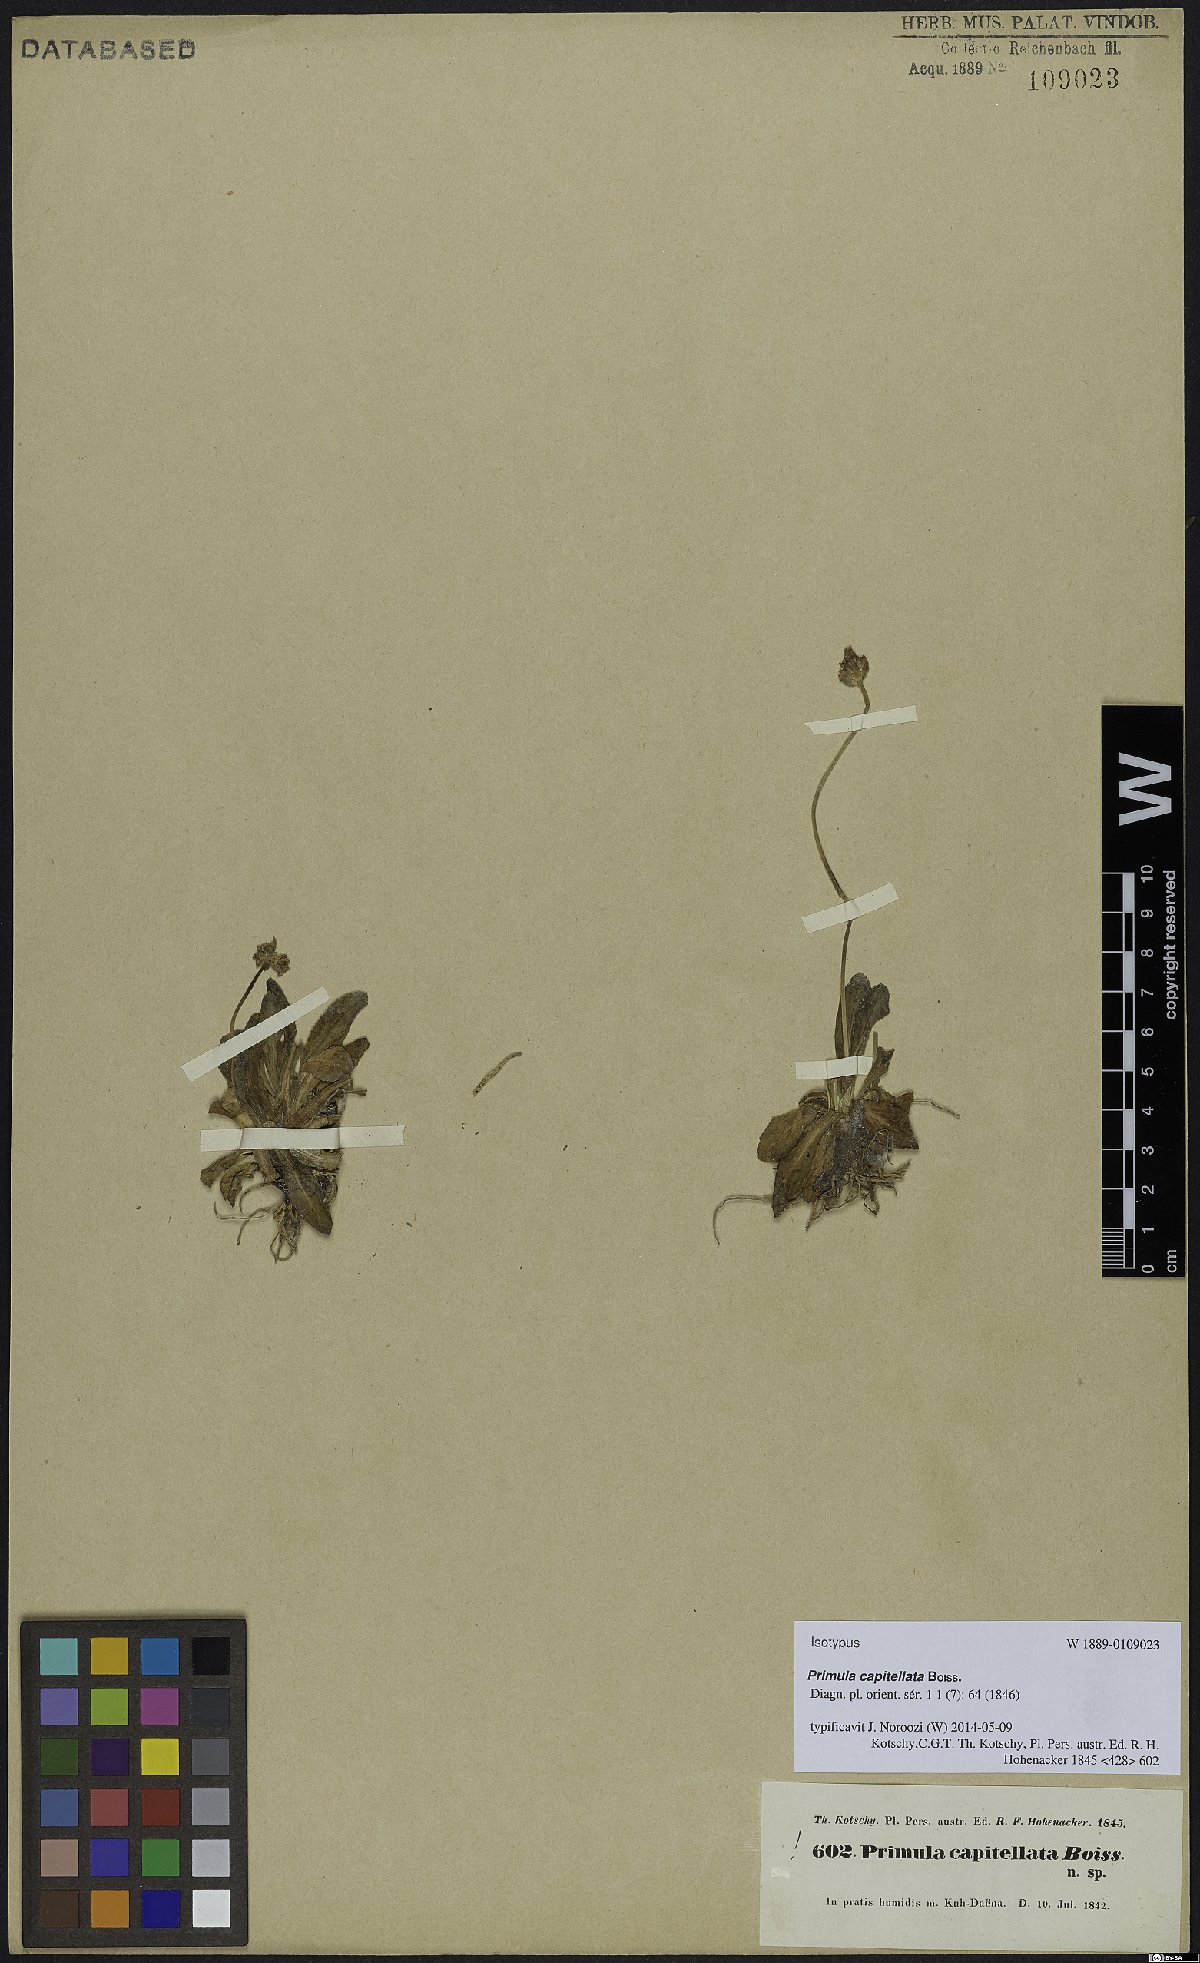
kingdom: Plantae
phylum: Tracheophyta
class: Magnoliopsida
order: Ericales
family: Primulaceae
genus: Primula
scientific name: Primula capitellata
